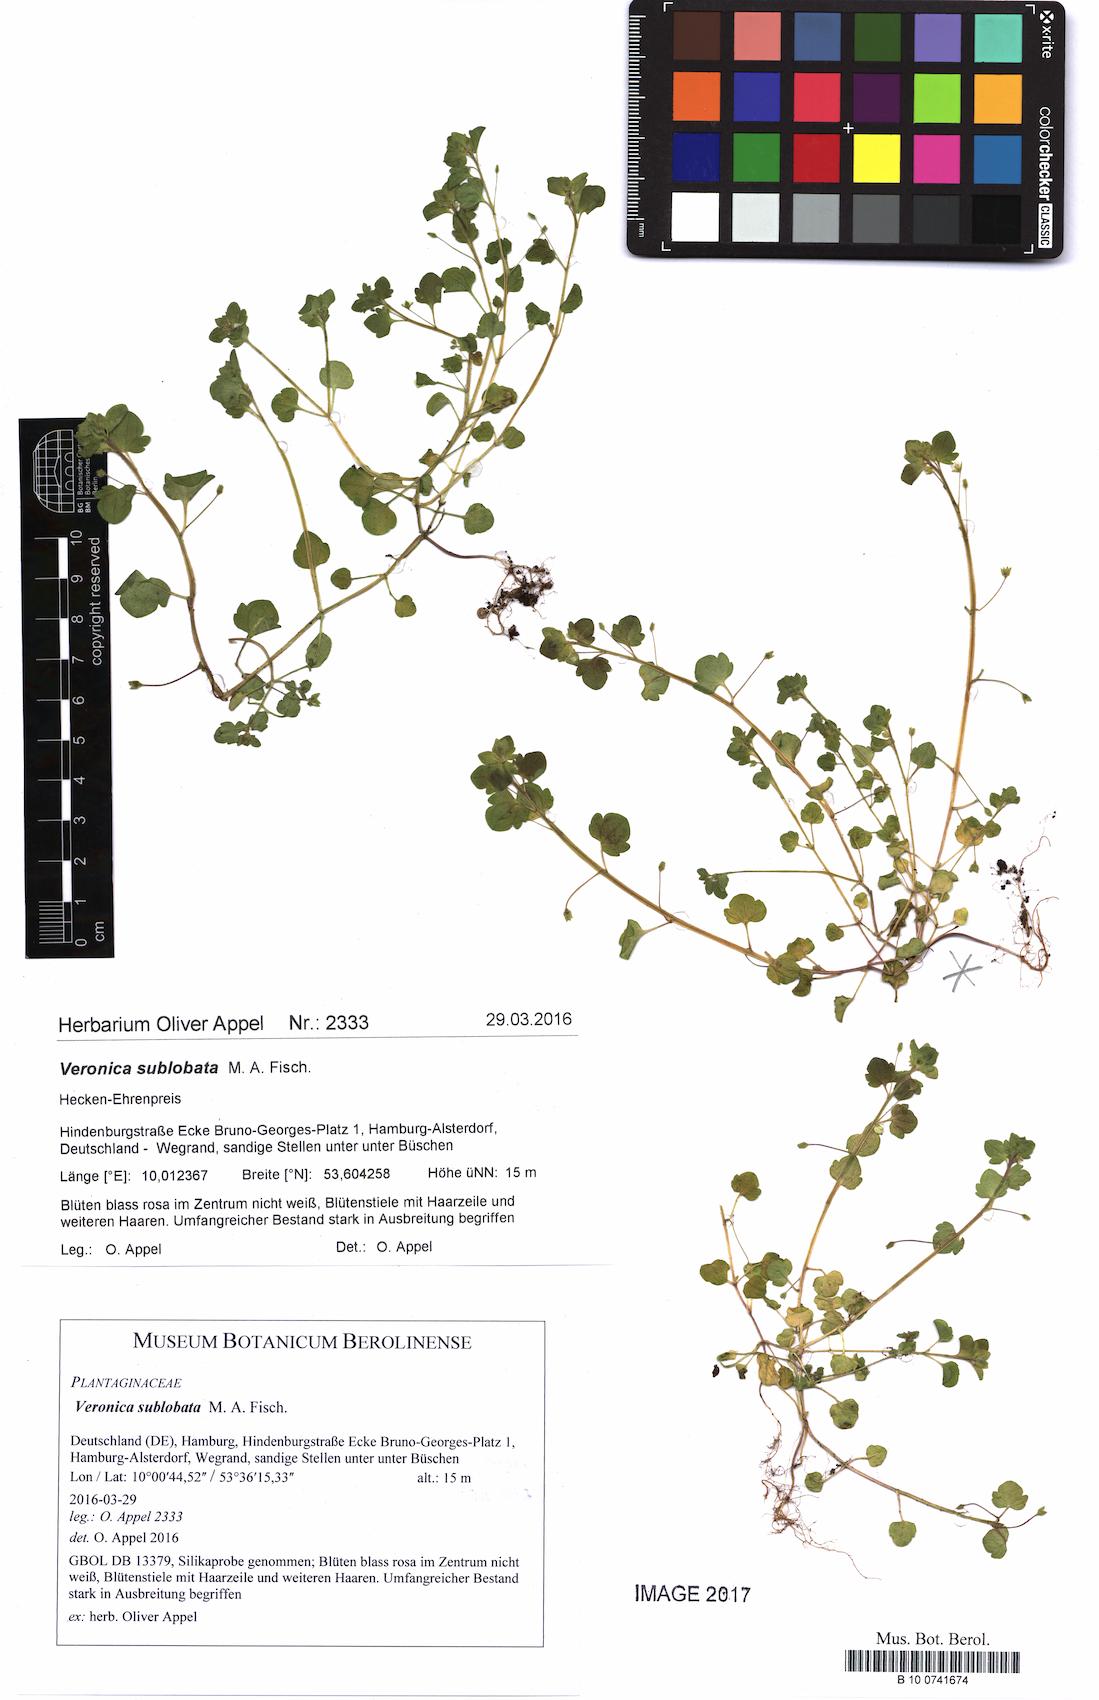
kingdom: Plantae
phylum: Tracheophyta
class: Magnoliopsida
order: Lamiales
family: Plantaginaceae
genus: Veronica
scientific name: Veronica sublobata
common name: False ivy-leaved speedwell
